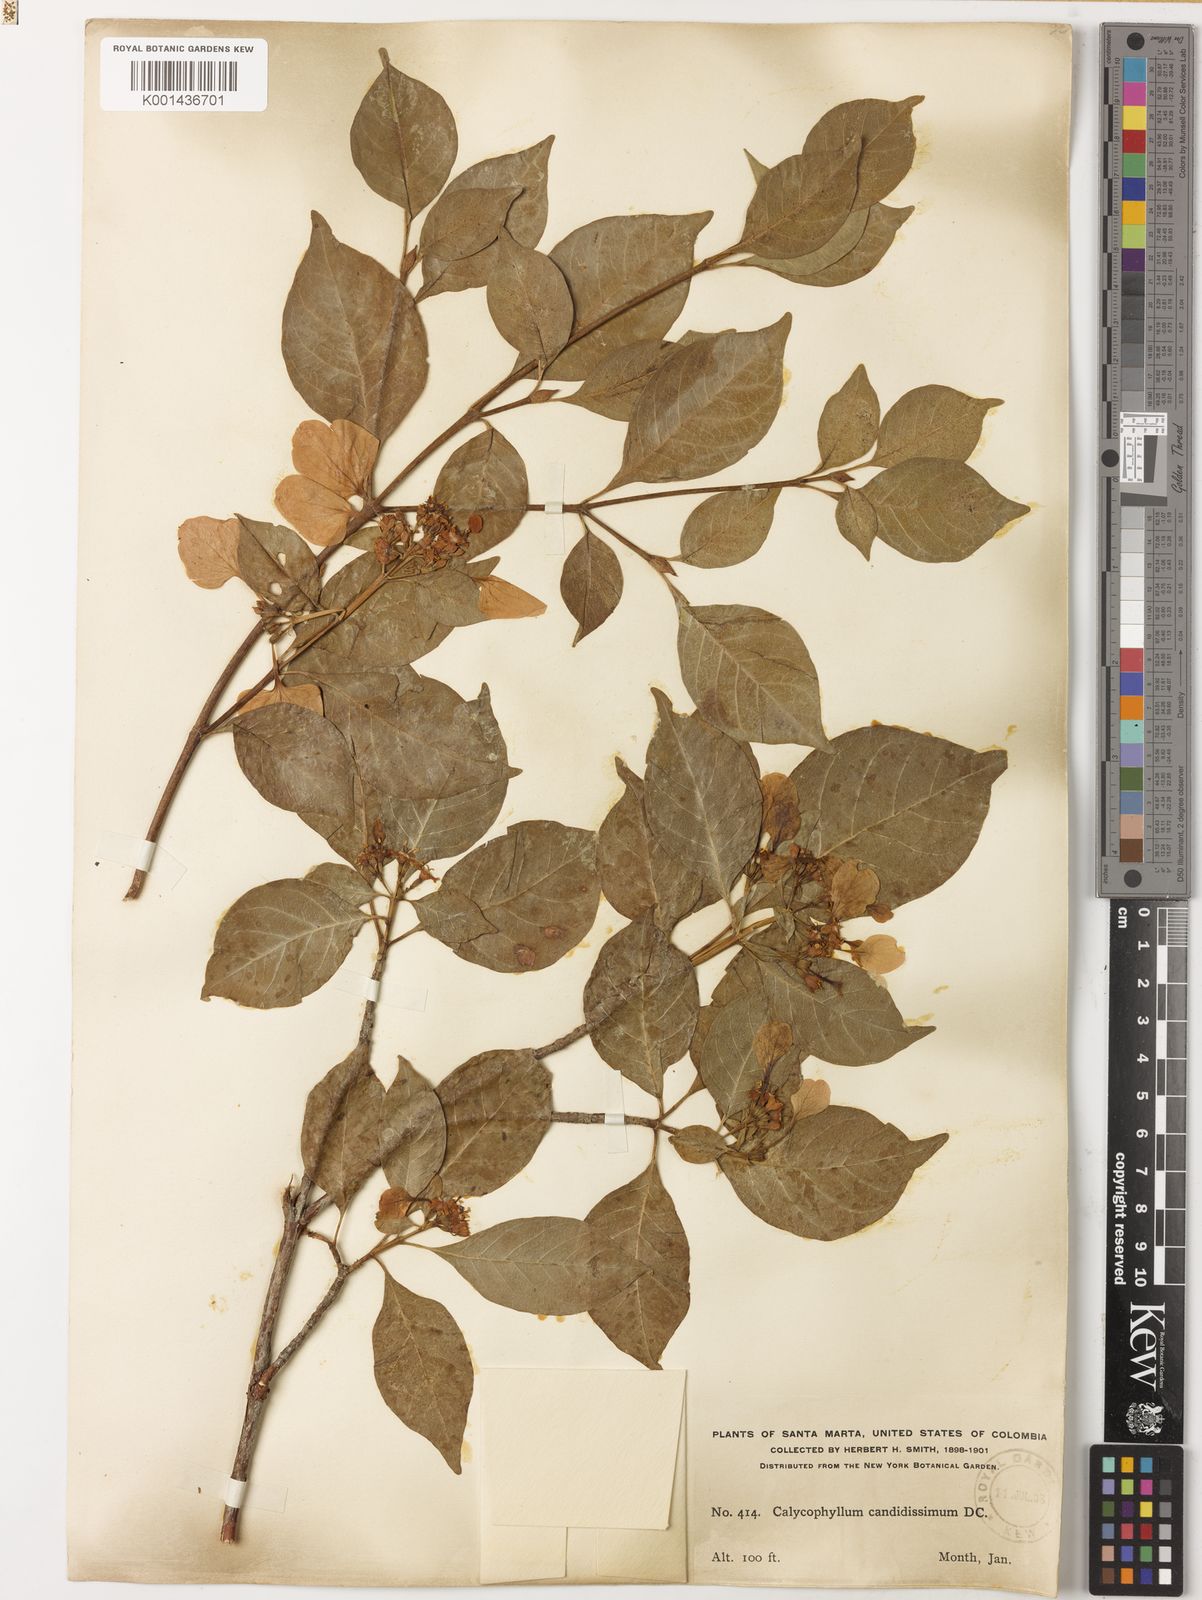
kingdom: Plantae
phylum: Tracheophyta
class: Magnoliopsida
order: Gentianales
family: Rubiaceae
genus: Calycophyllum
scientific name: Calycophyllum candidissimum
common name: Dagame
